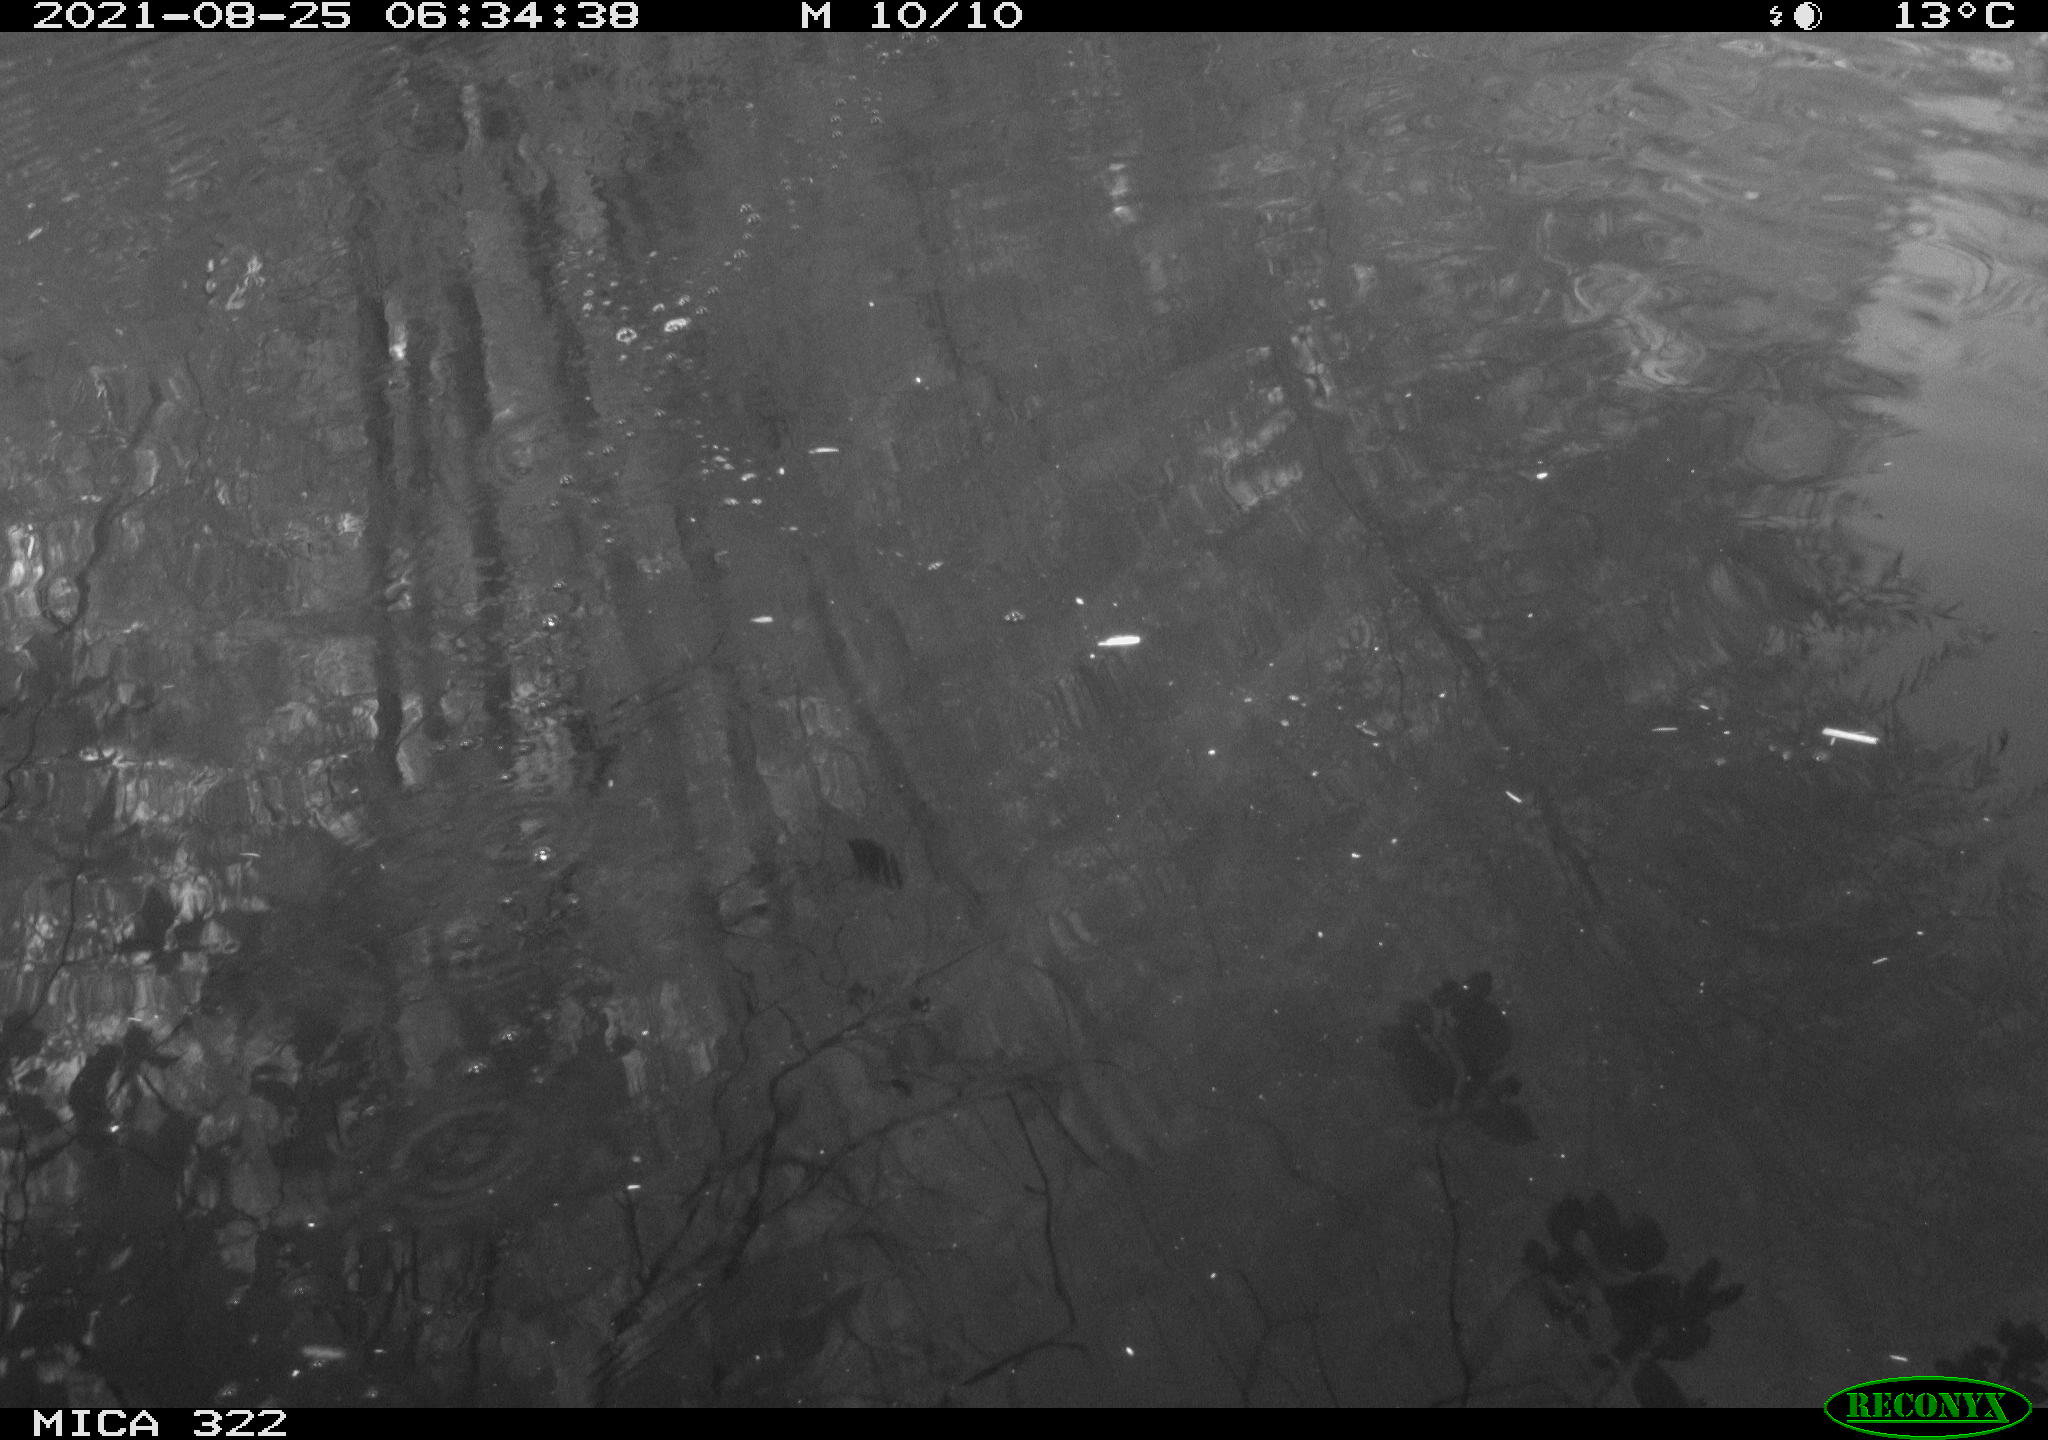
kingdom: Animalia
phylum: Chordata
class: Mammalia
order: Carnivora
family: Mustelidae
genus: Mustela
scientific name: Mustela nivalis
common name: Least weasel
